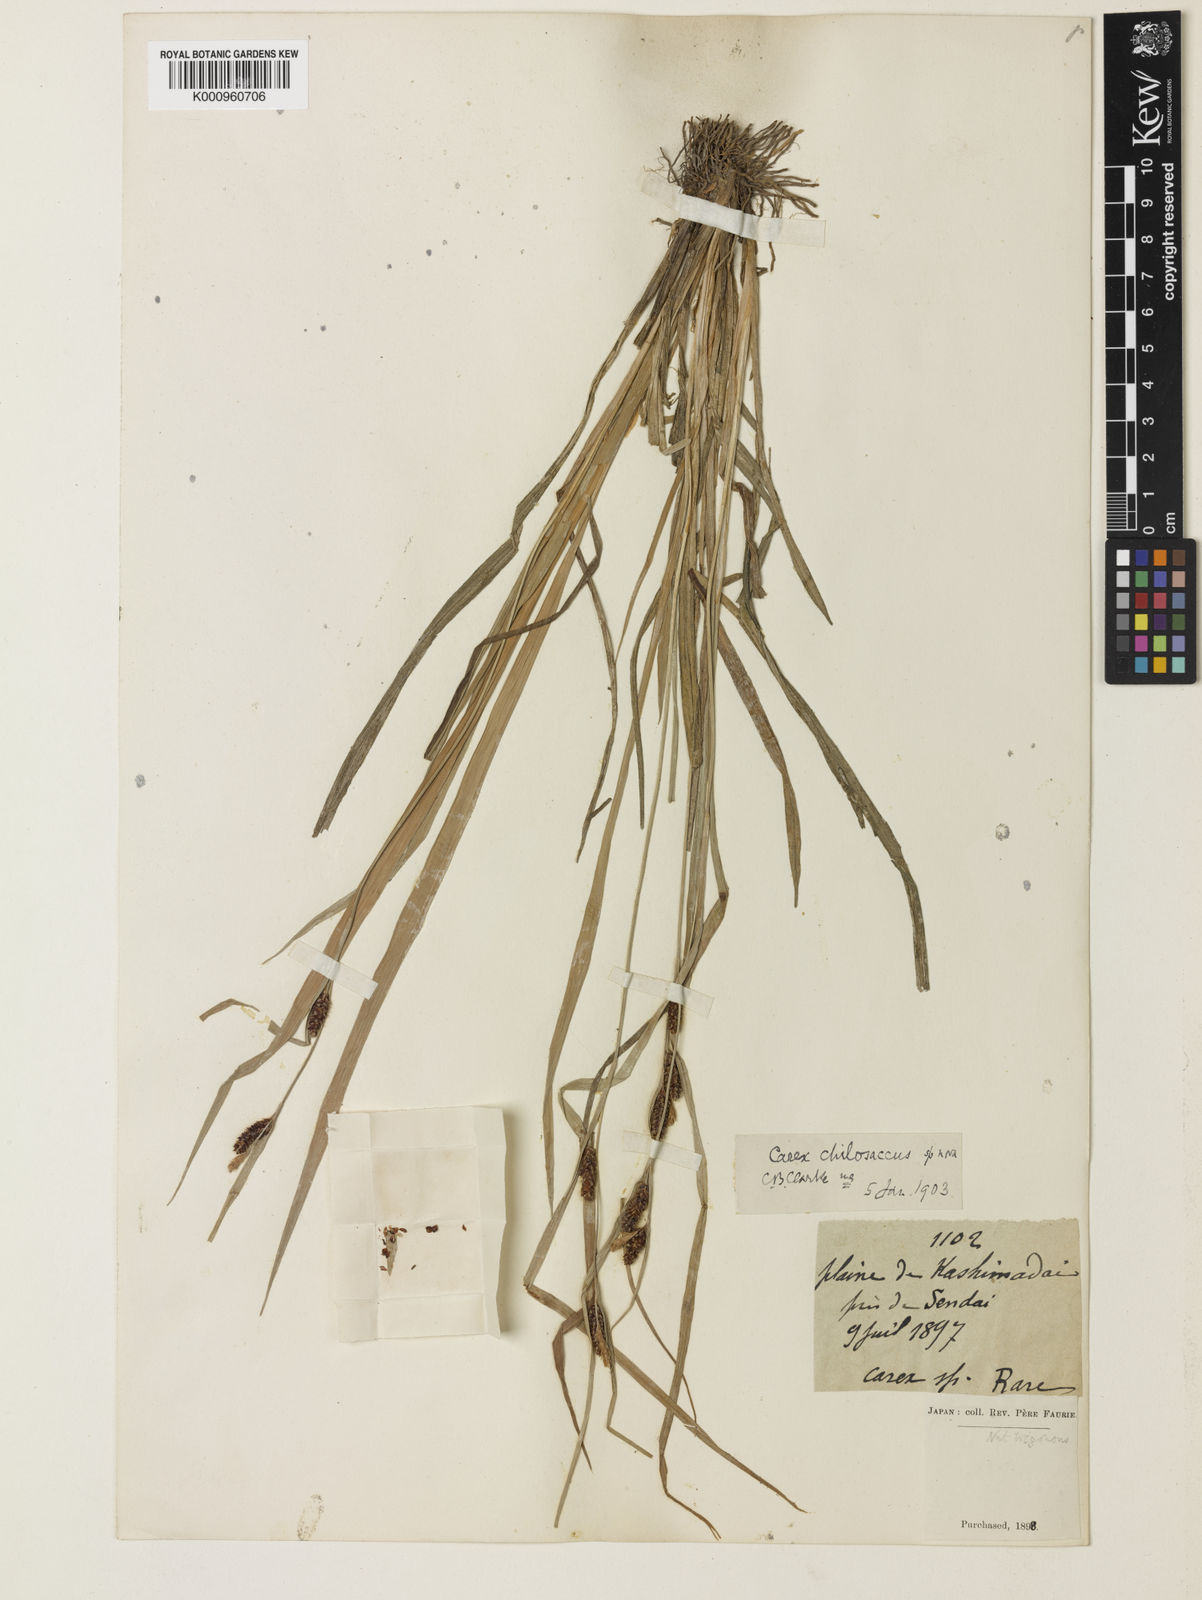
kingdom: Plantae
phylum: Tracheophyta
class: Liliopsida
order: Poales
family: Cyperaceae
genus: Carex
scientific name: Carex maculata
